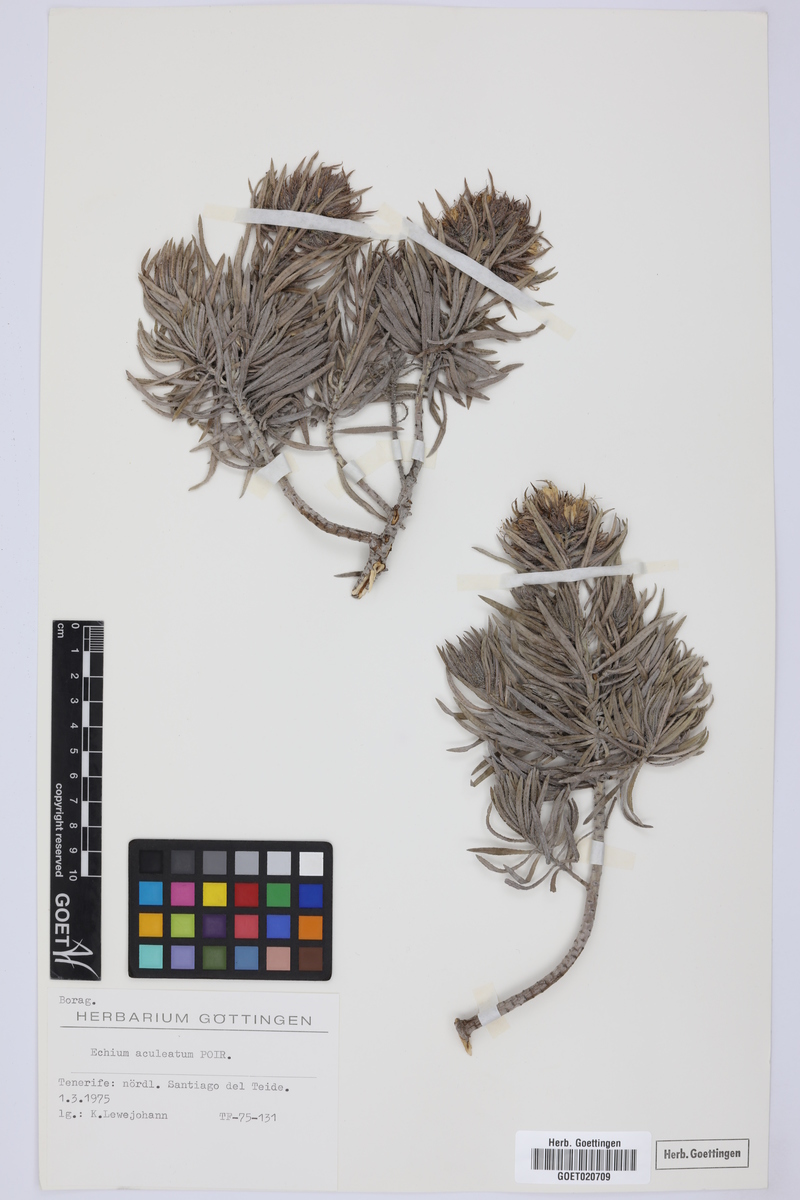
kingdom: Plantae
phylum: Tracheophyta
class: Magnoliopsida
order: Boraginales
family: Boraginaceae
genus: Echium
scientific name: Echium aculeatum
